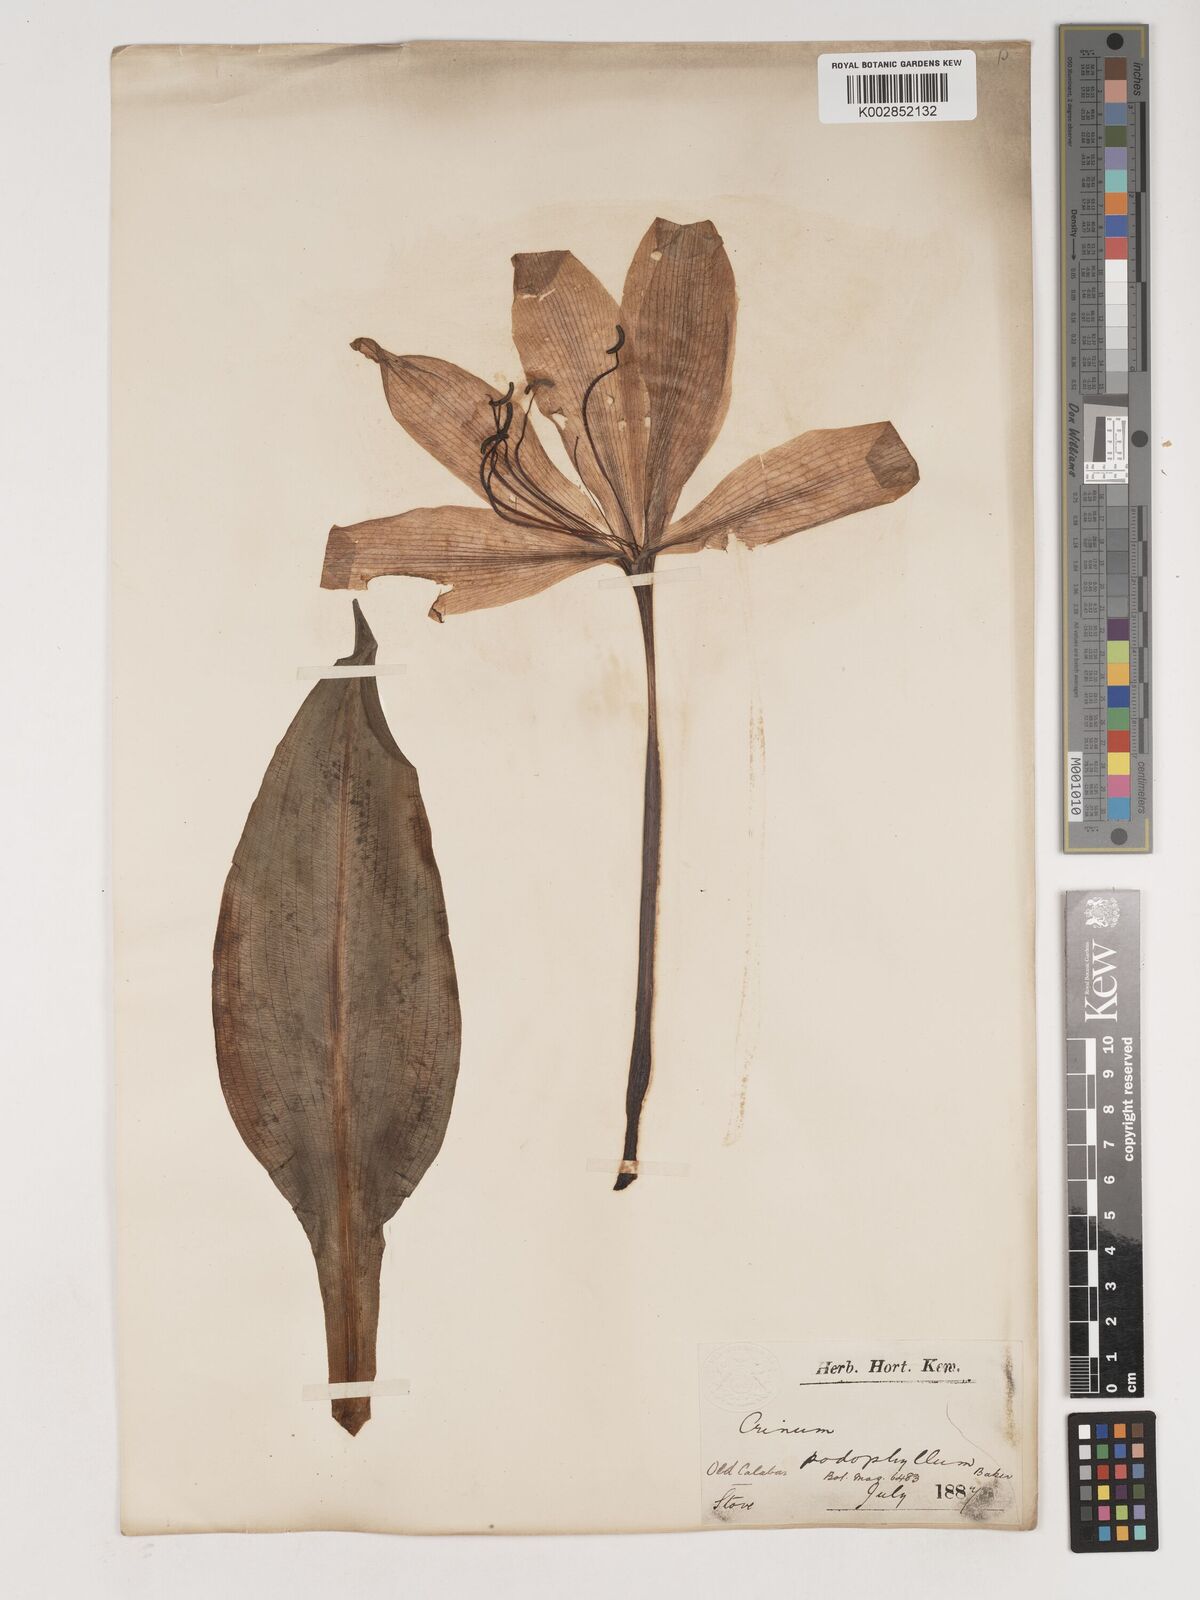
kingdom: Plantae
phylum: Tracheophyta
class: Liliopsida
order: Asparagales
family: Amaryllidaceae
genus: Crinum
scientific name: Crinum jagus
